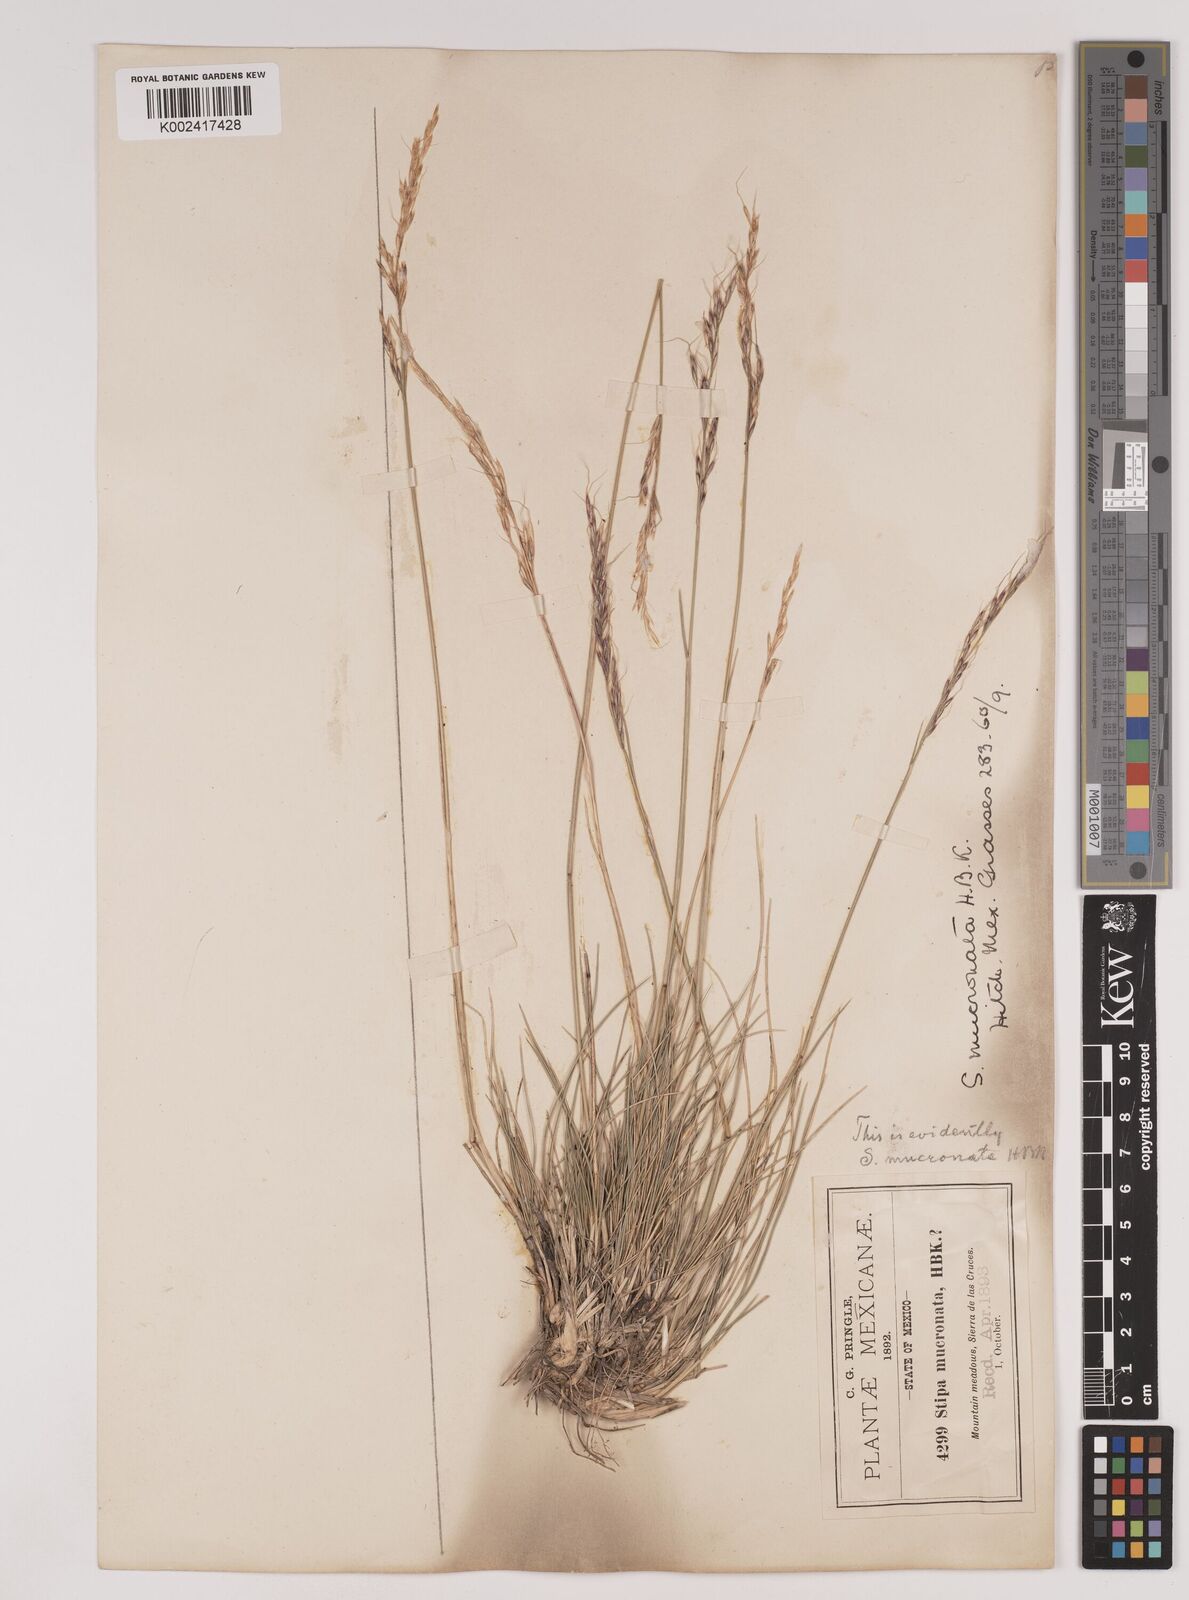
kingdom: Plantae
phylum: Tracheophyta
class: Liliopsida
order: Poales
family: Poaceae
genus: Nassella
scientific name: Nassella mucronata
